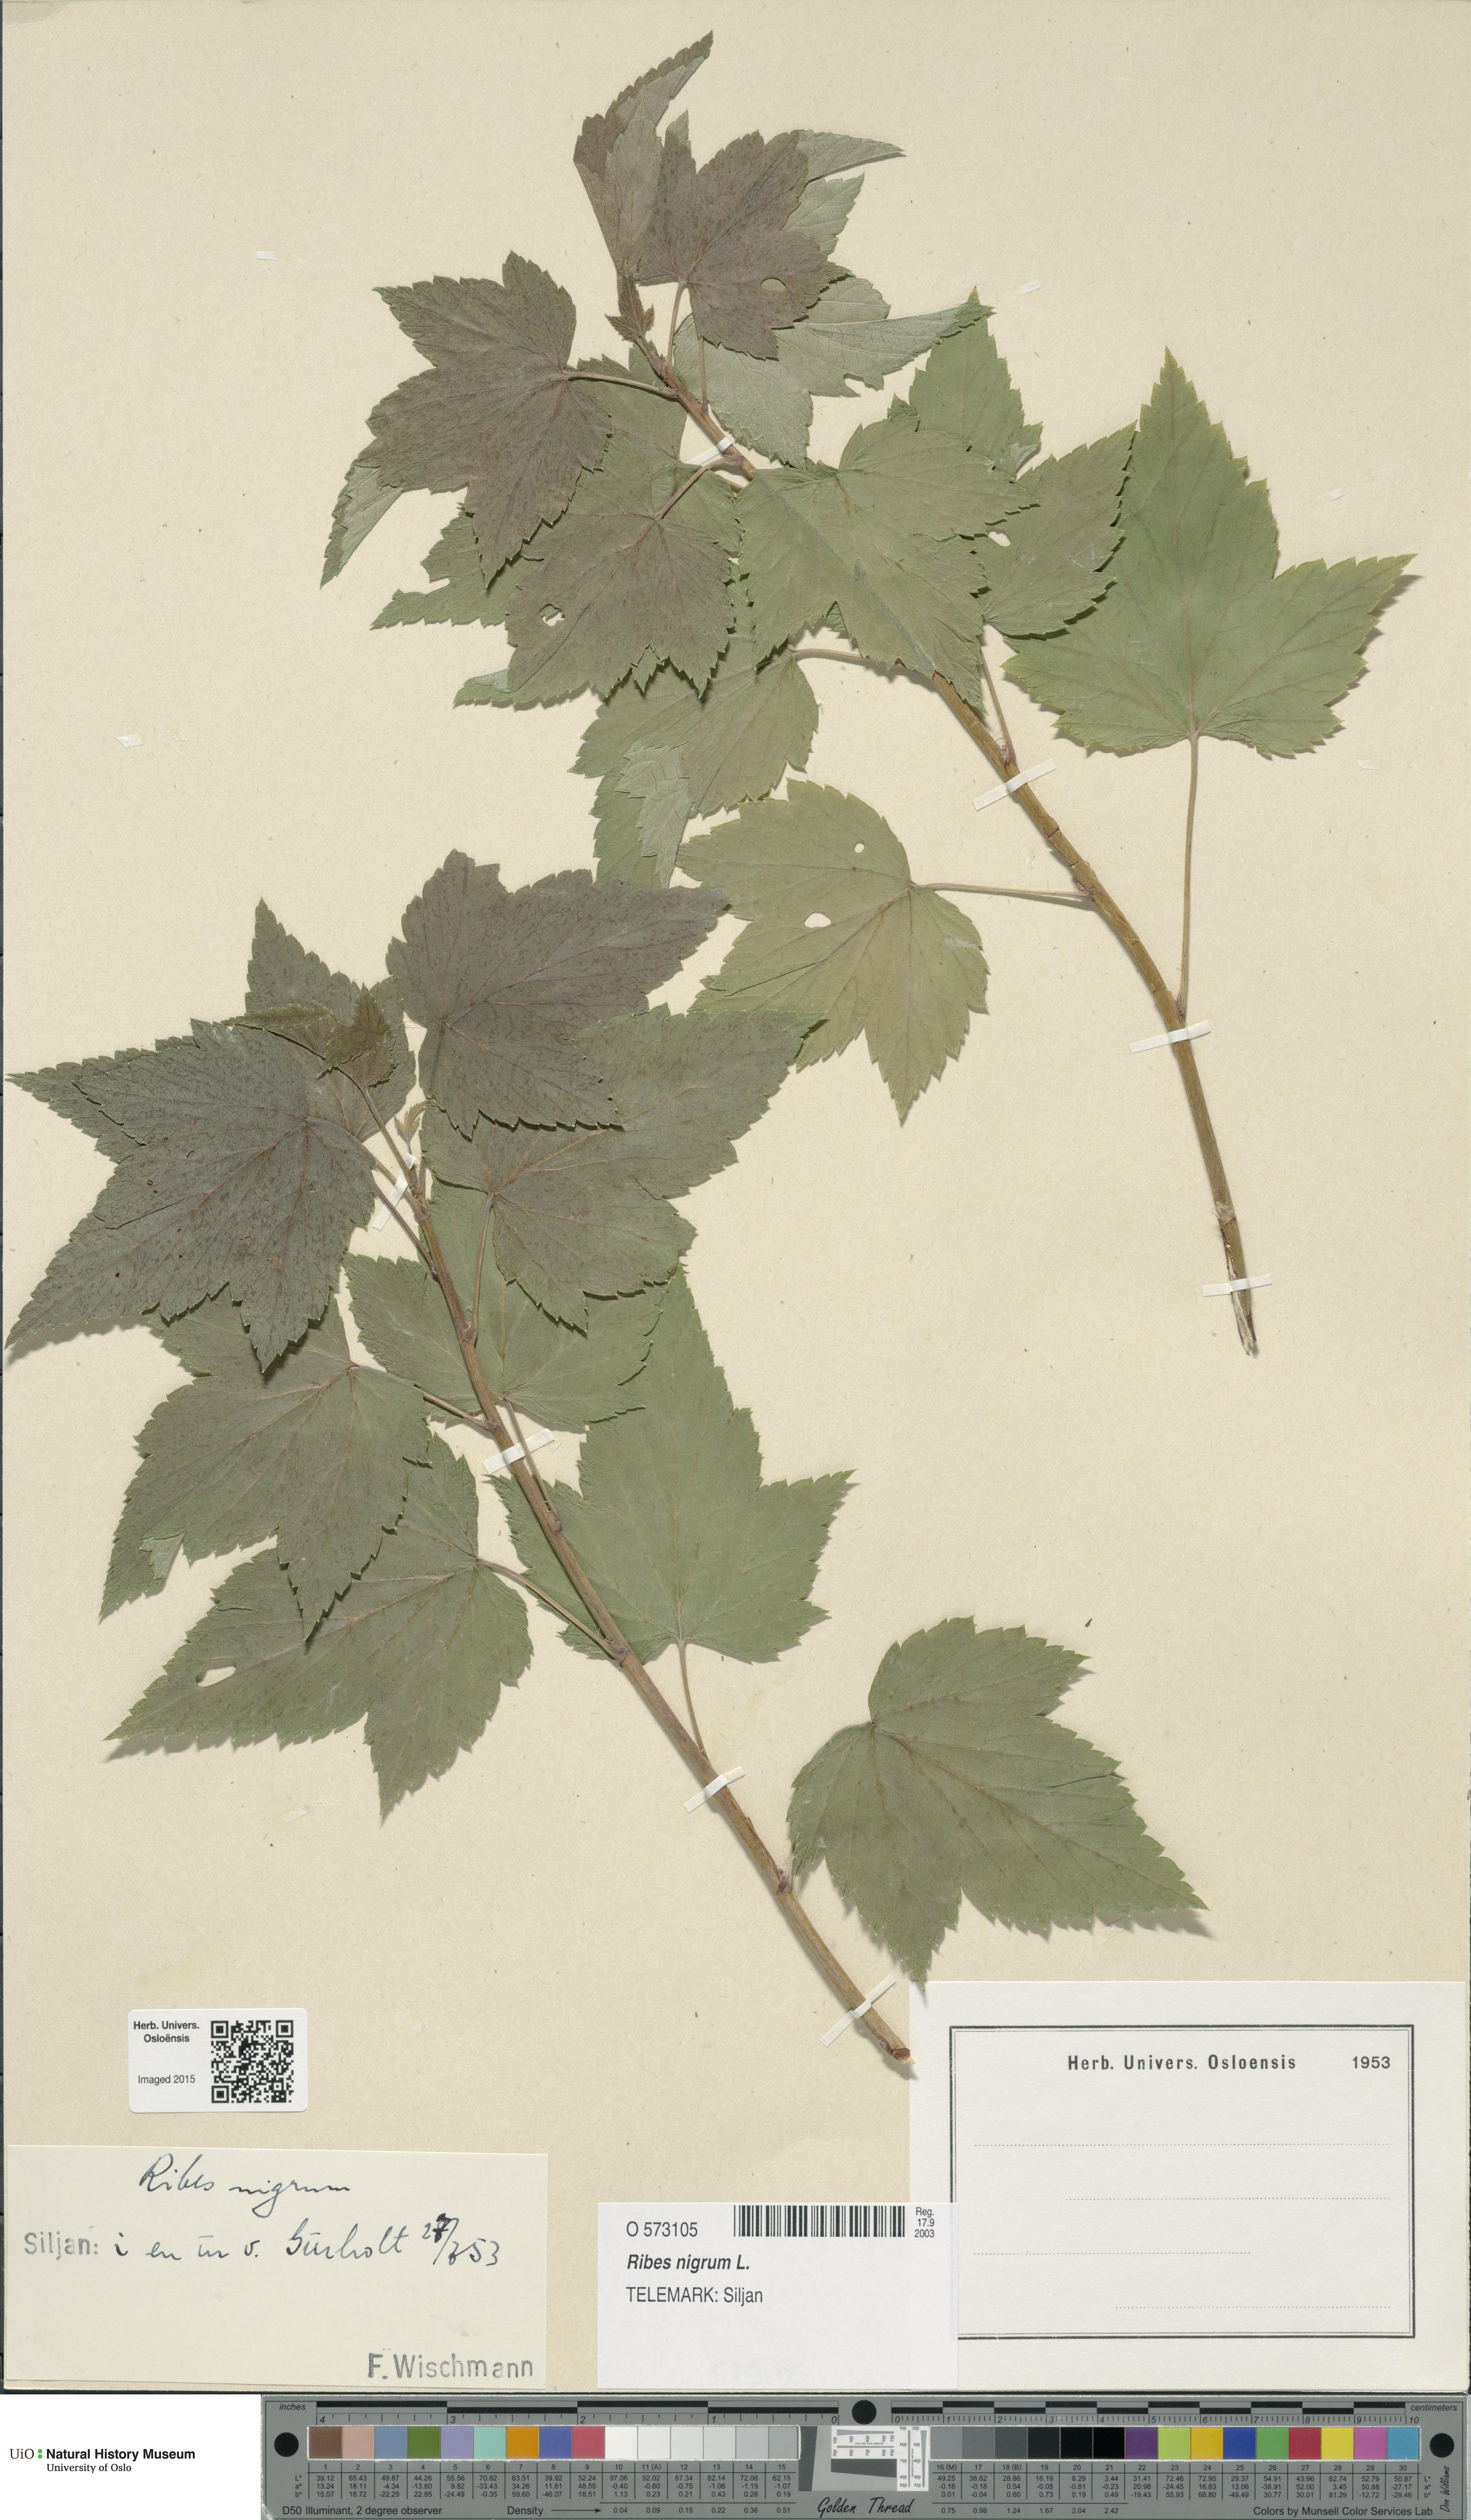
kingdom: Plantae
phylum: Tracheophyta
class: Magnoliopsida
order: Saxifragales
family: Grossulariaceae
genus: Ribes
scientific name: Ribes nigrum
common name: Black currant
